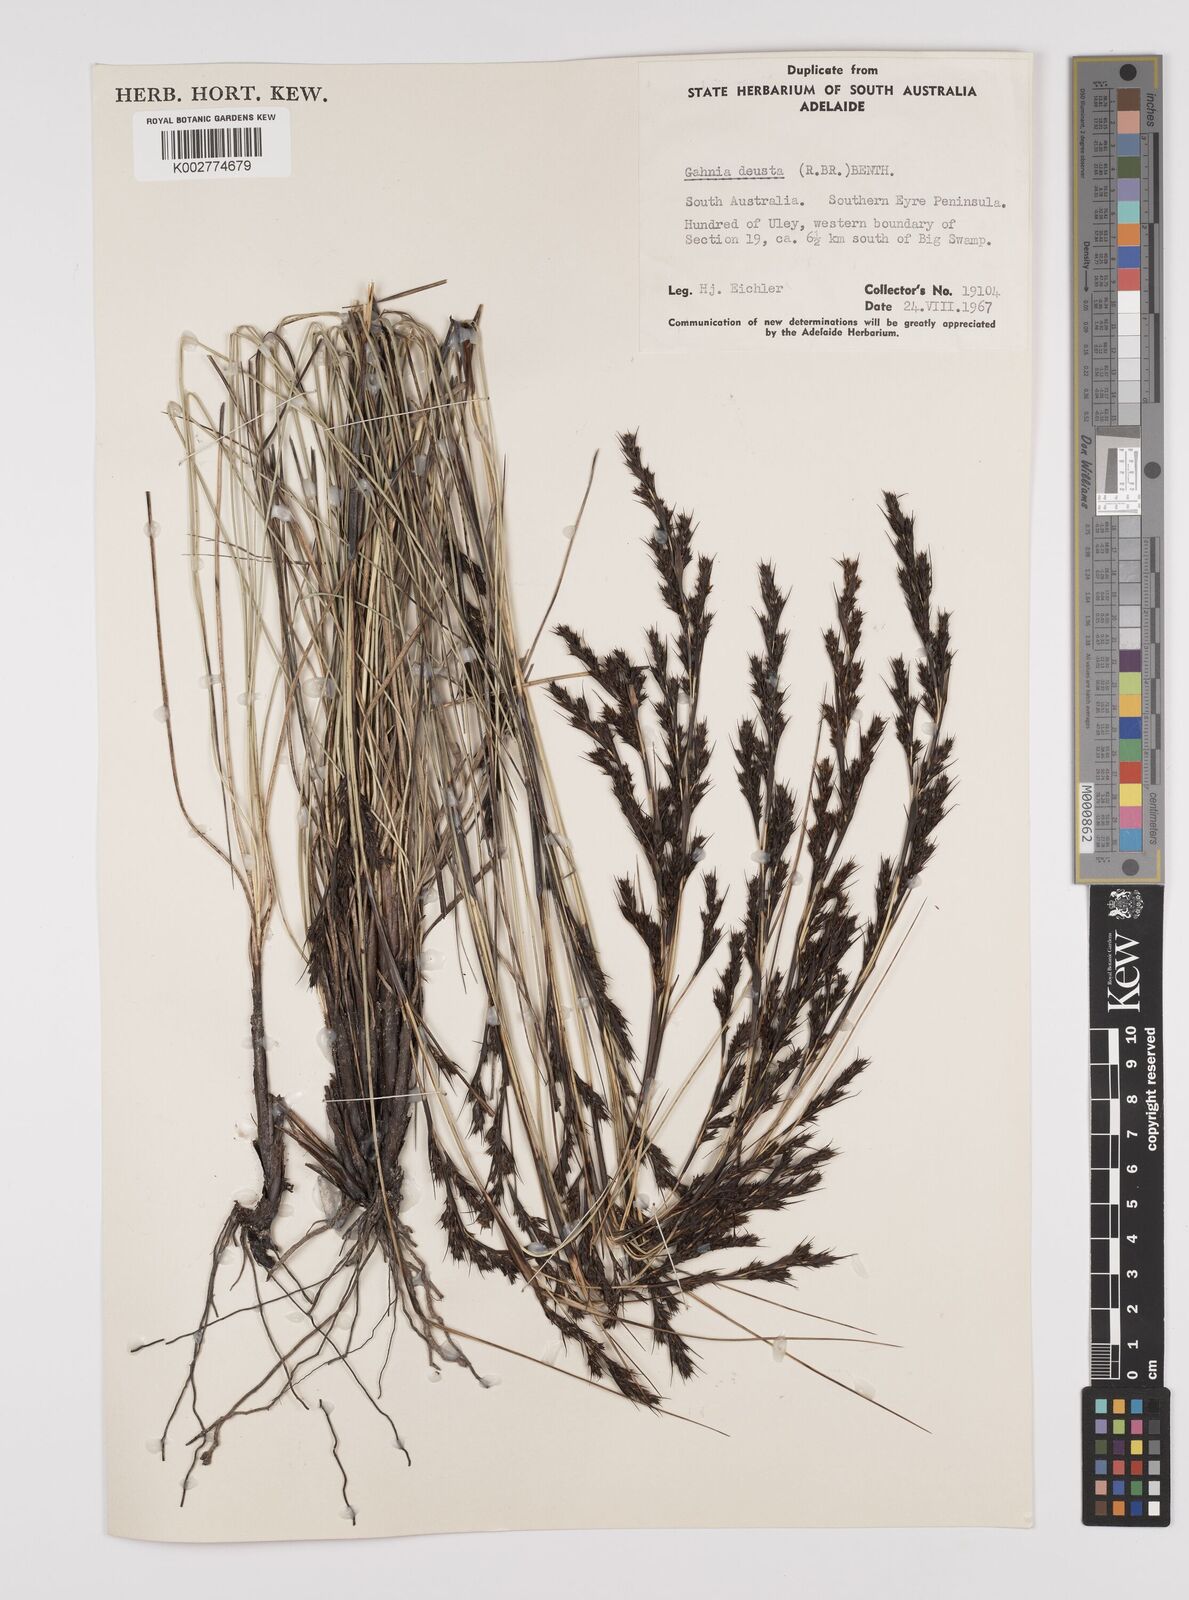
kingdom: Plantae
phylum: Tracheophyta
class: Liliopsida
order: Poales
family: Cyperaceae
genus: Gahnia
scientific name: Gahnia deusta
